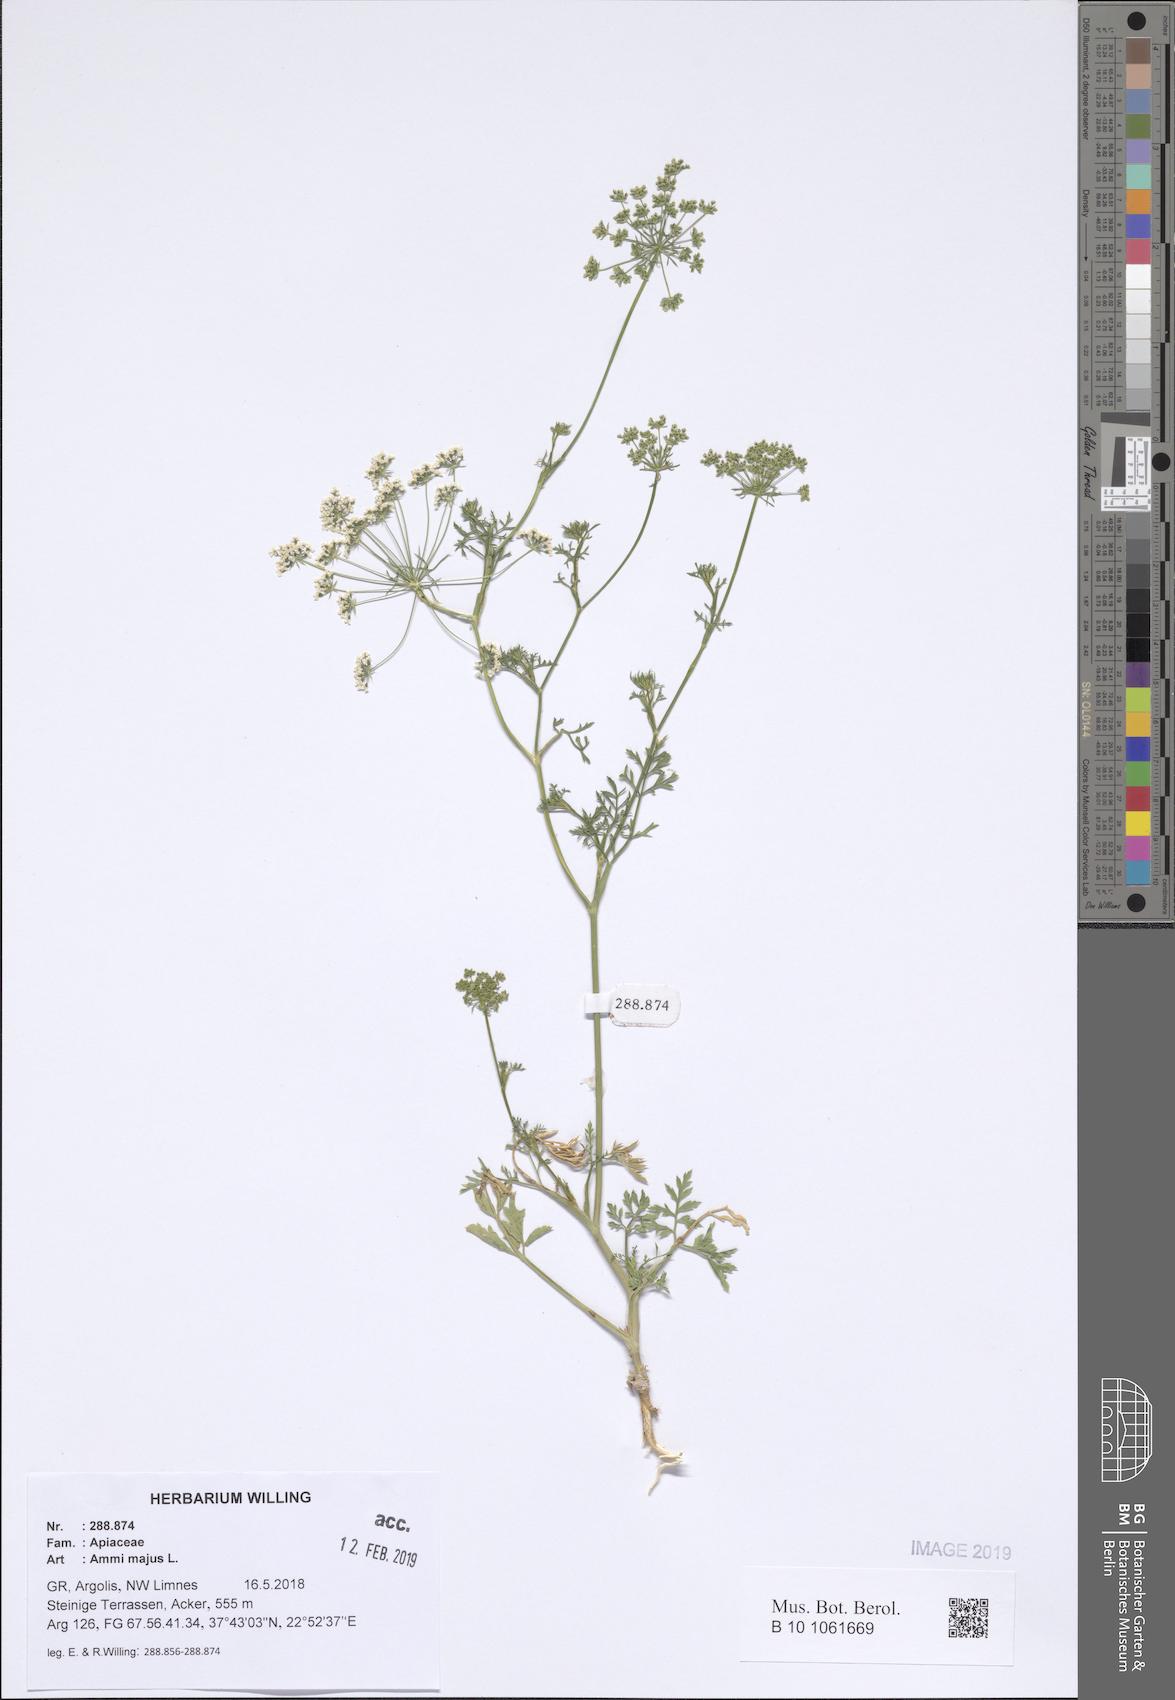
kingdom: Plantae
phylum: Tracheophyta
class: Magnoliopsida
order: Apiales
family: Apiaceae
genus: Ammi
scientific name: Ammi majus
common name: Bullwort
